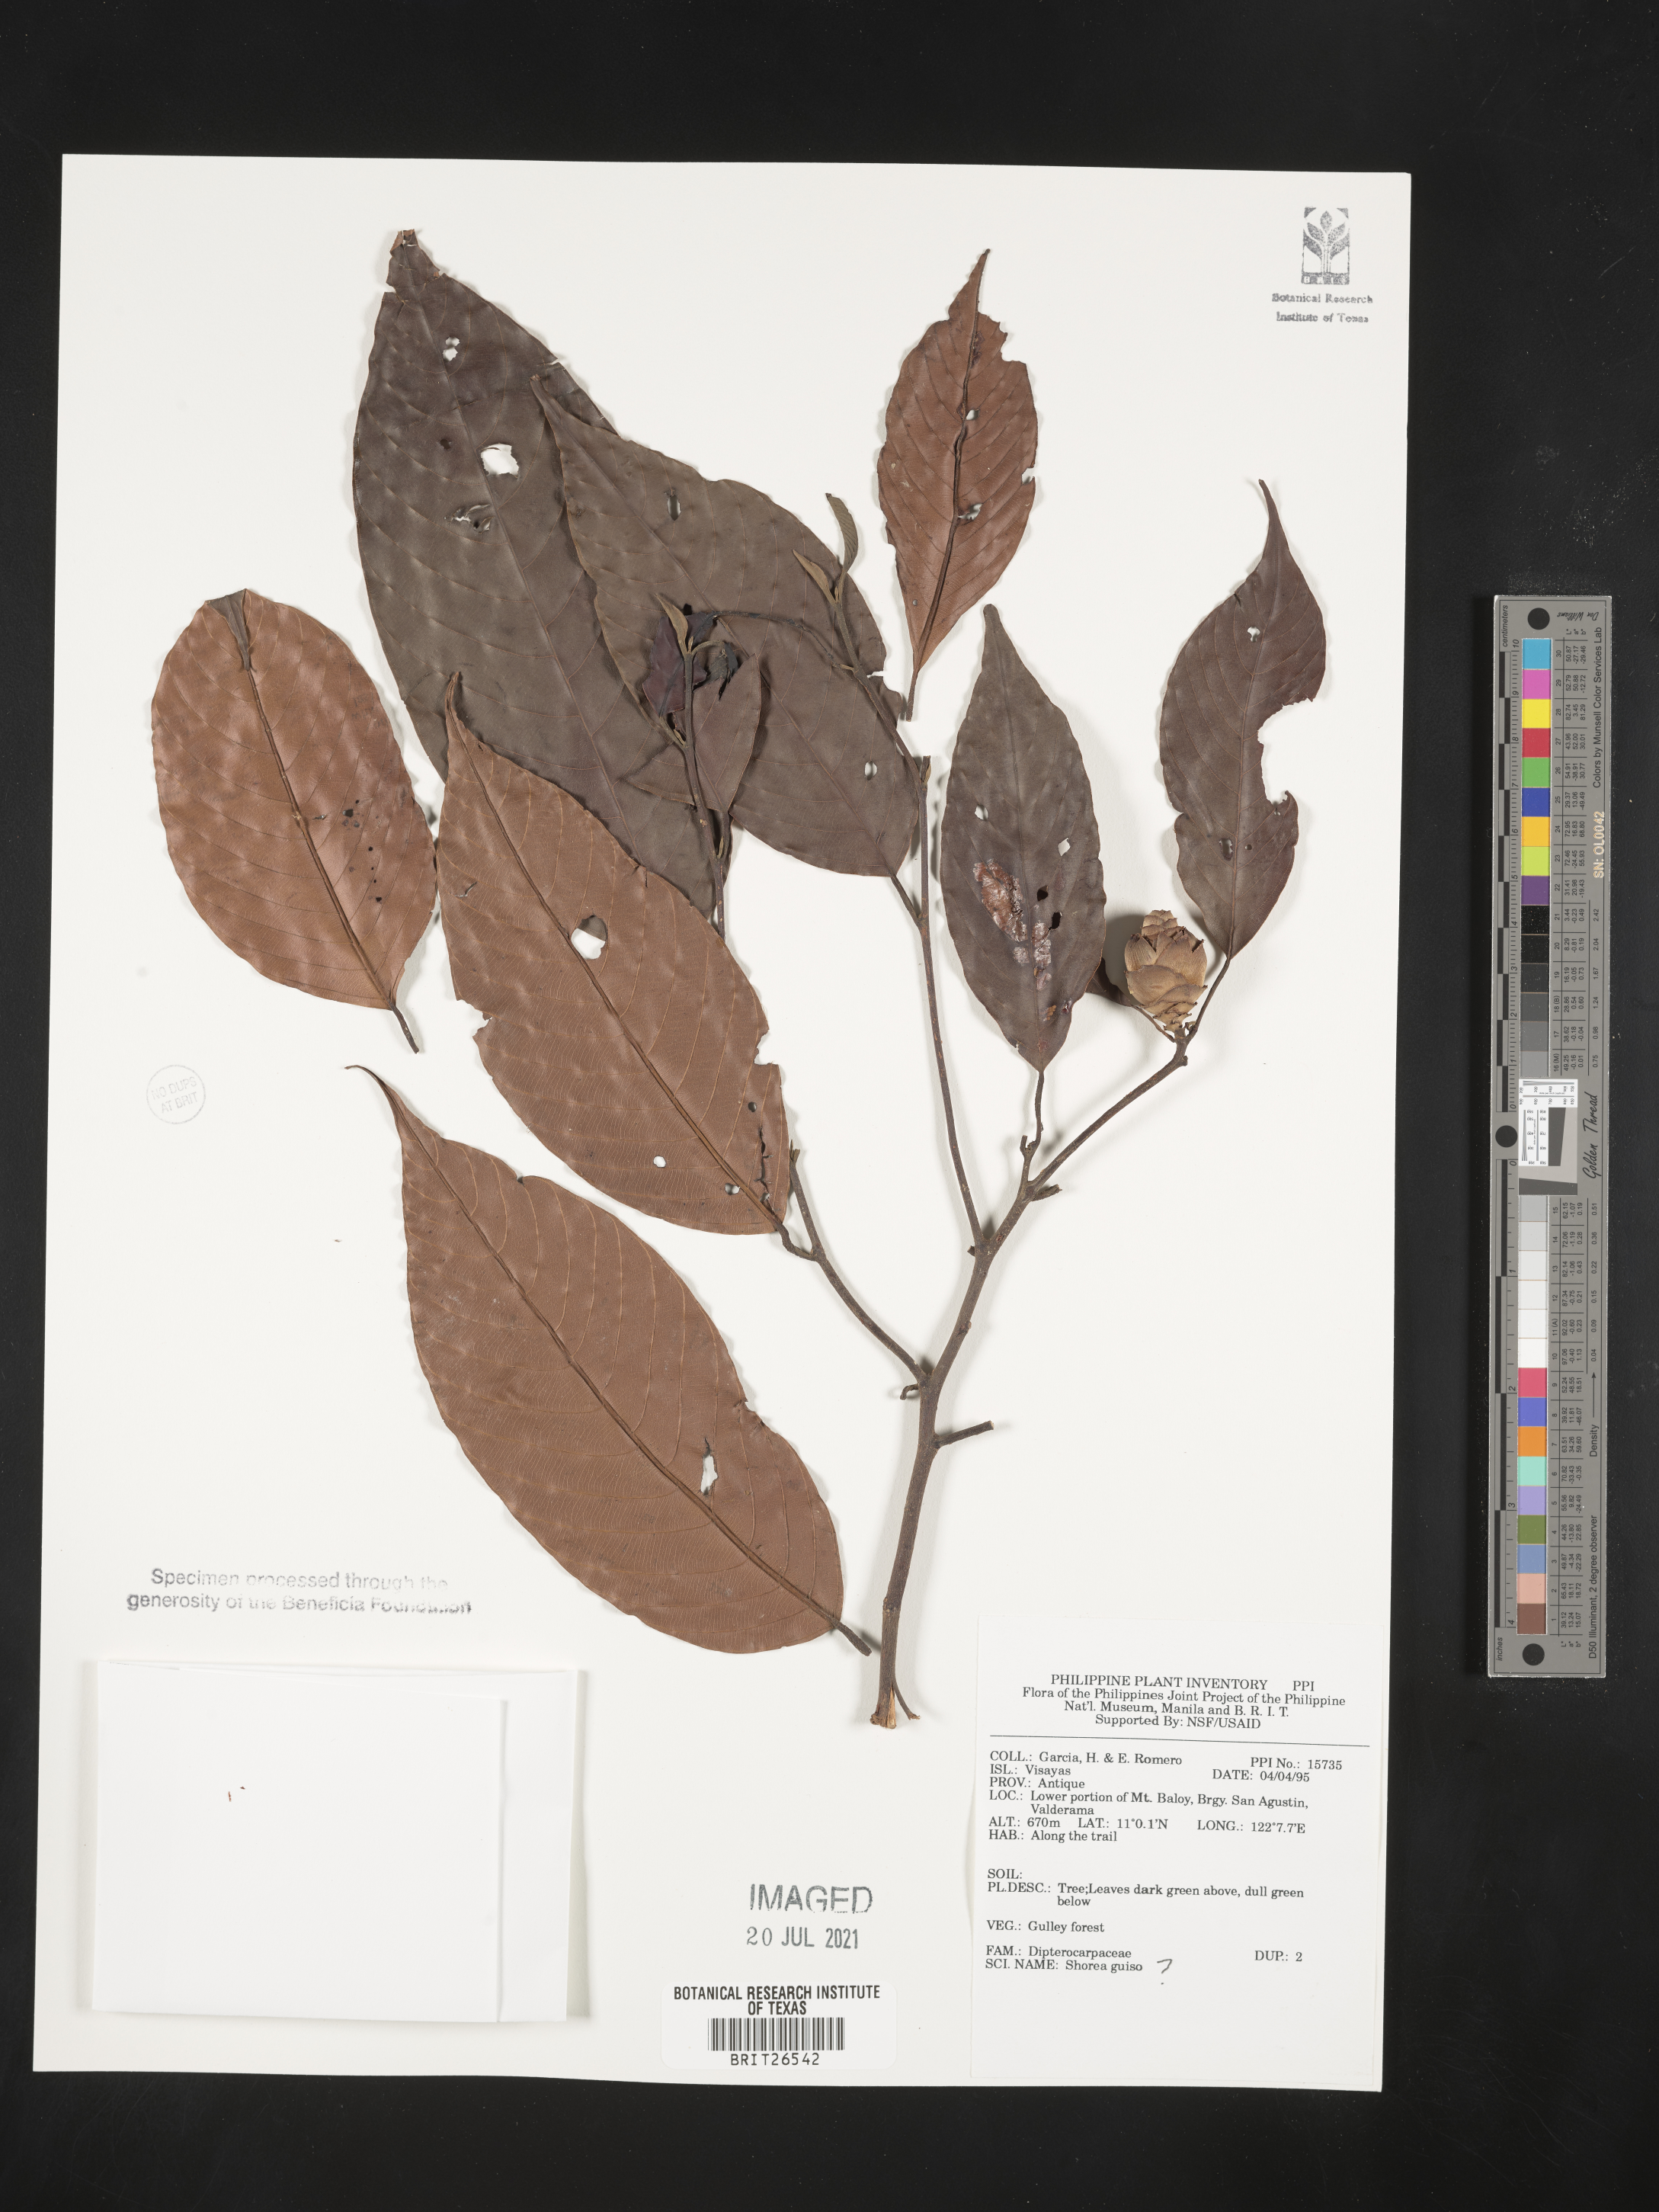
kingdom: Plantae
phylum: Tracheophyta
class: Magnoliopsida
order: Malvales
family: Dipterocarpaceae
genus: Shorea
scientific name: Shorea guiso
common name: Red balau
